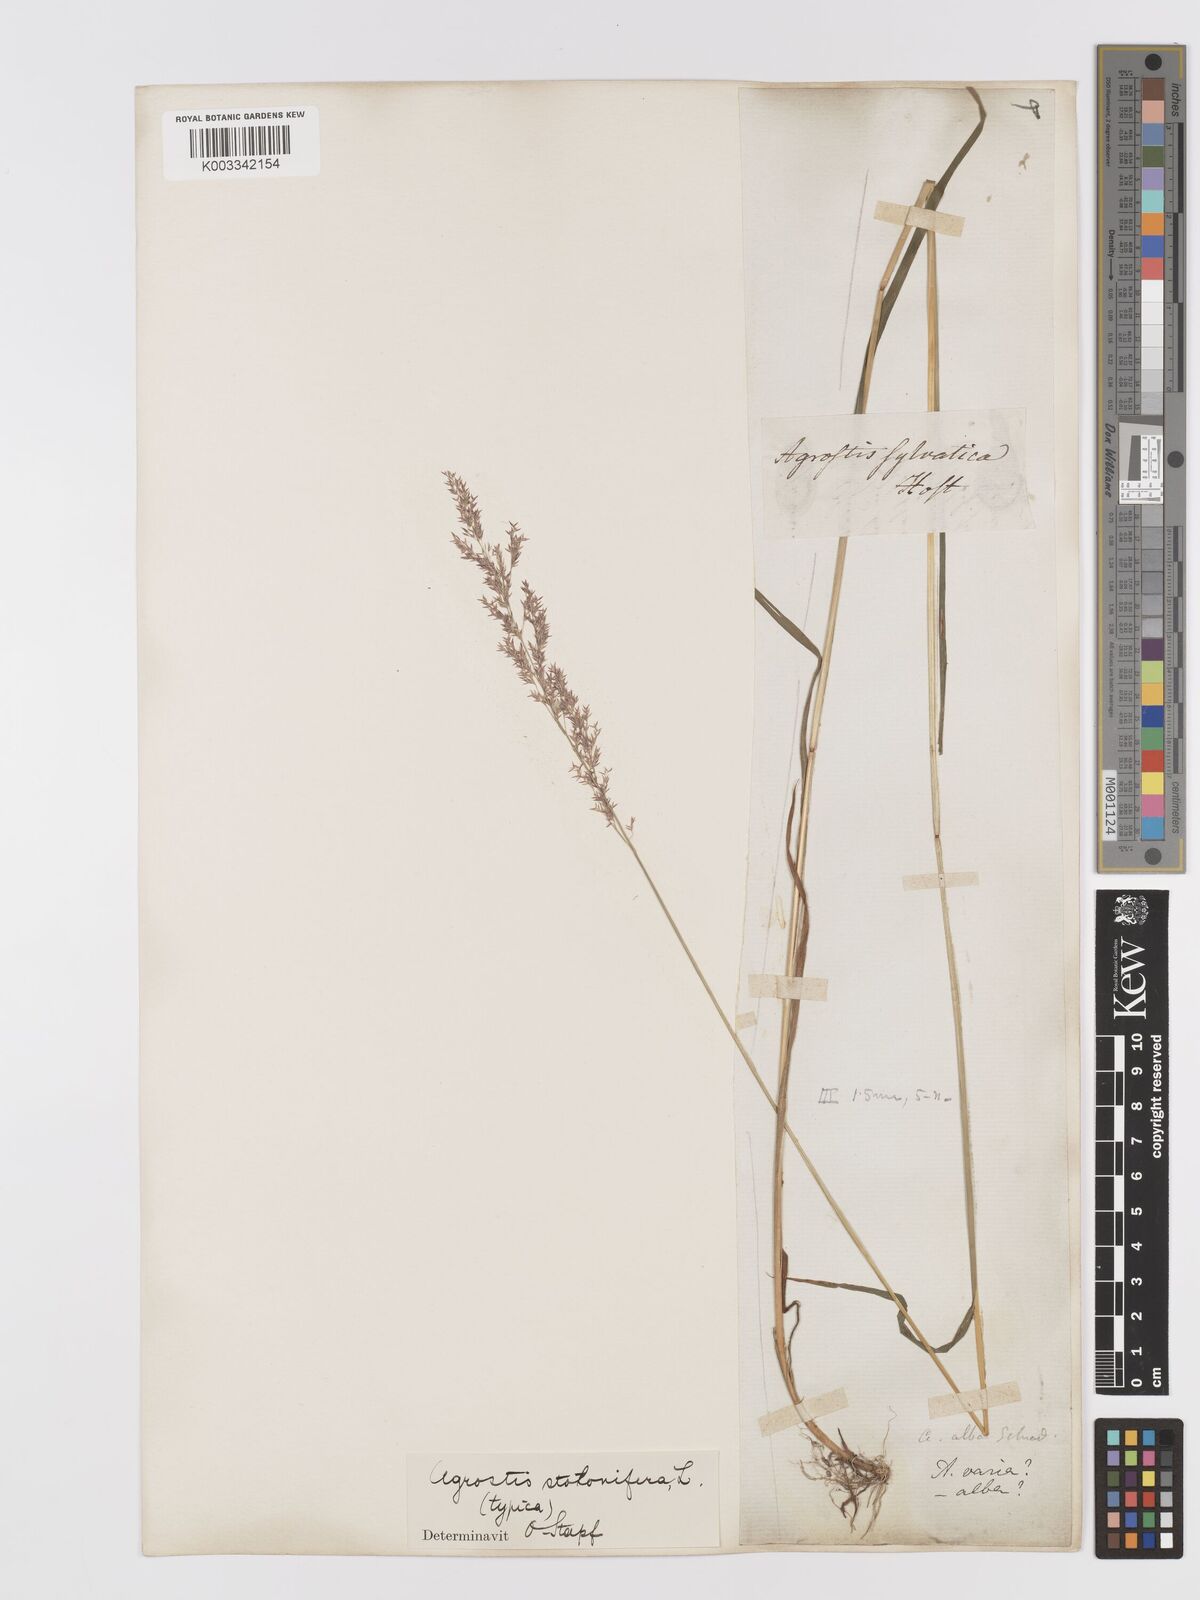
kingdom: Plantae
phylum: Tracheophyta
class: Liliopsida
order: Poales
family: Poaceae
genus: Agrostis
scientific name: Agrostis stolonifera
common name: Creeping bentgrass
